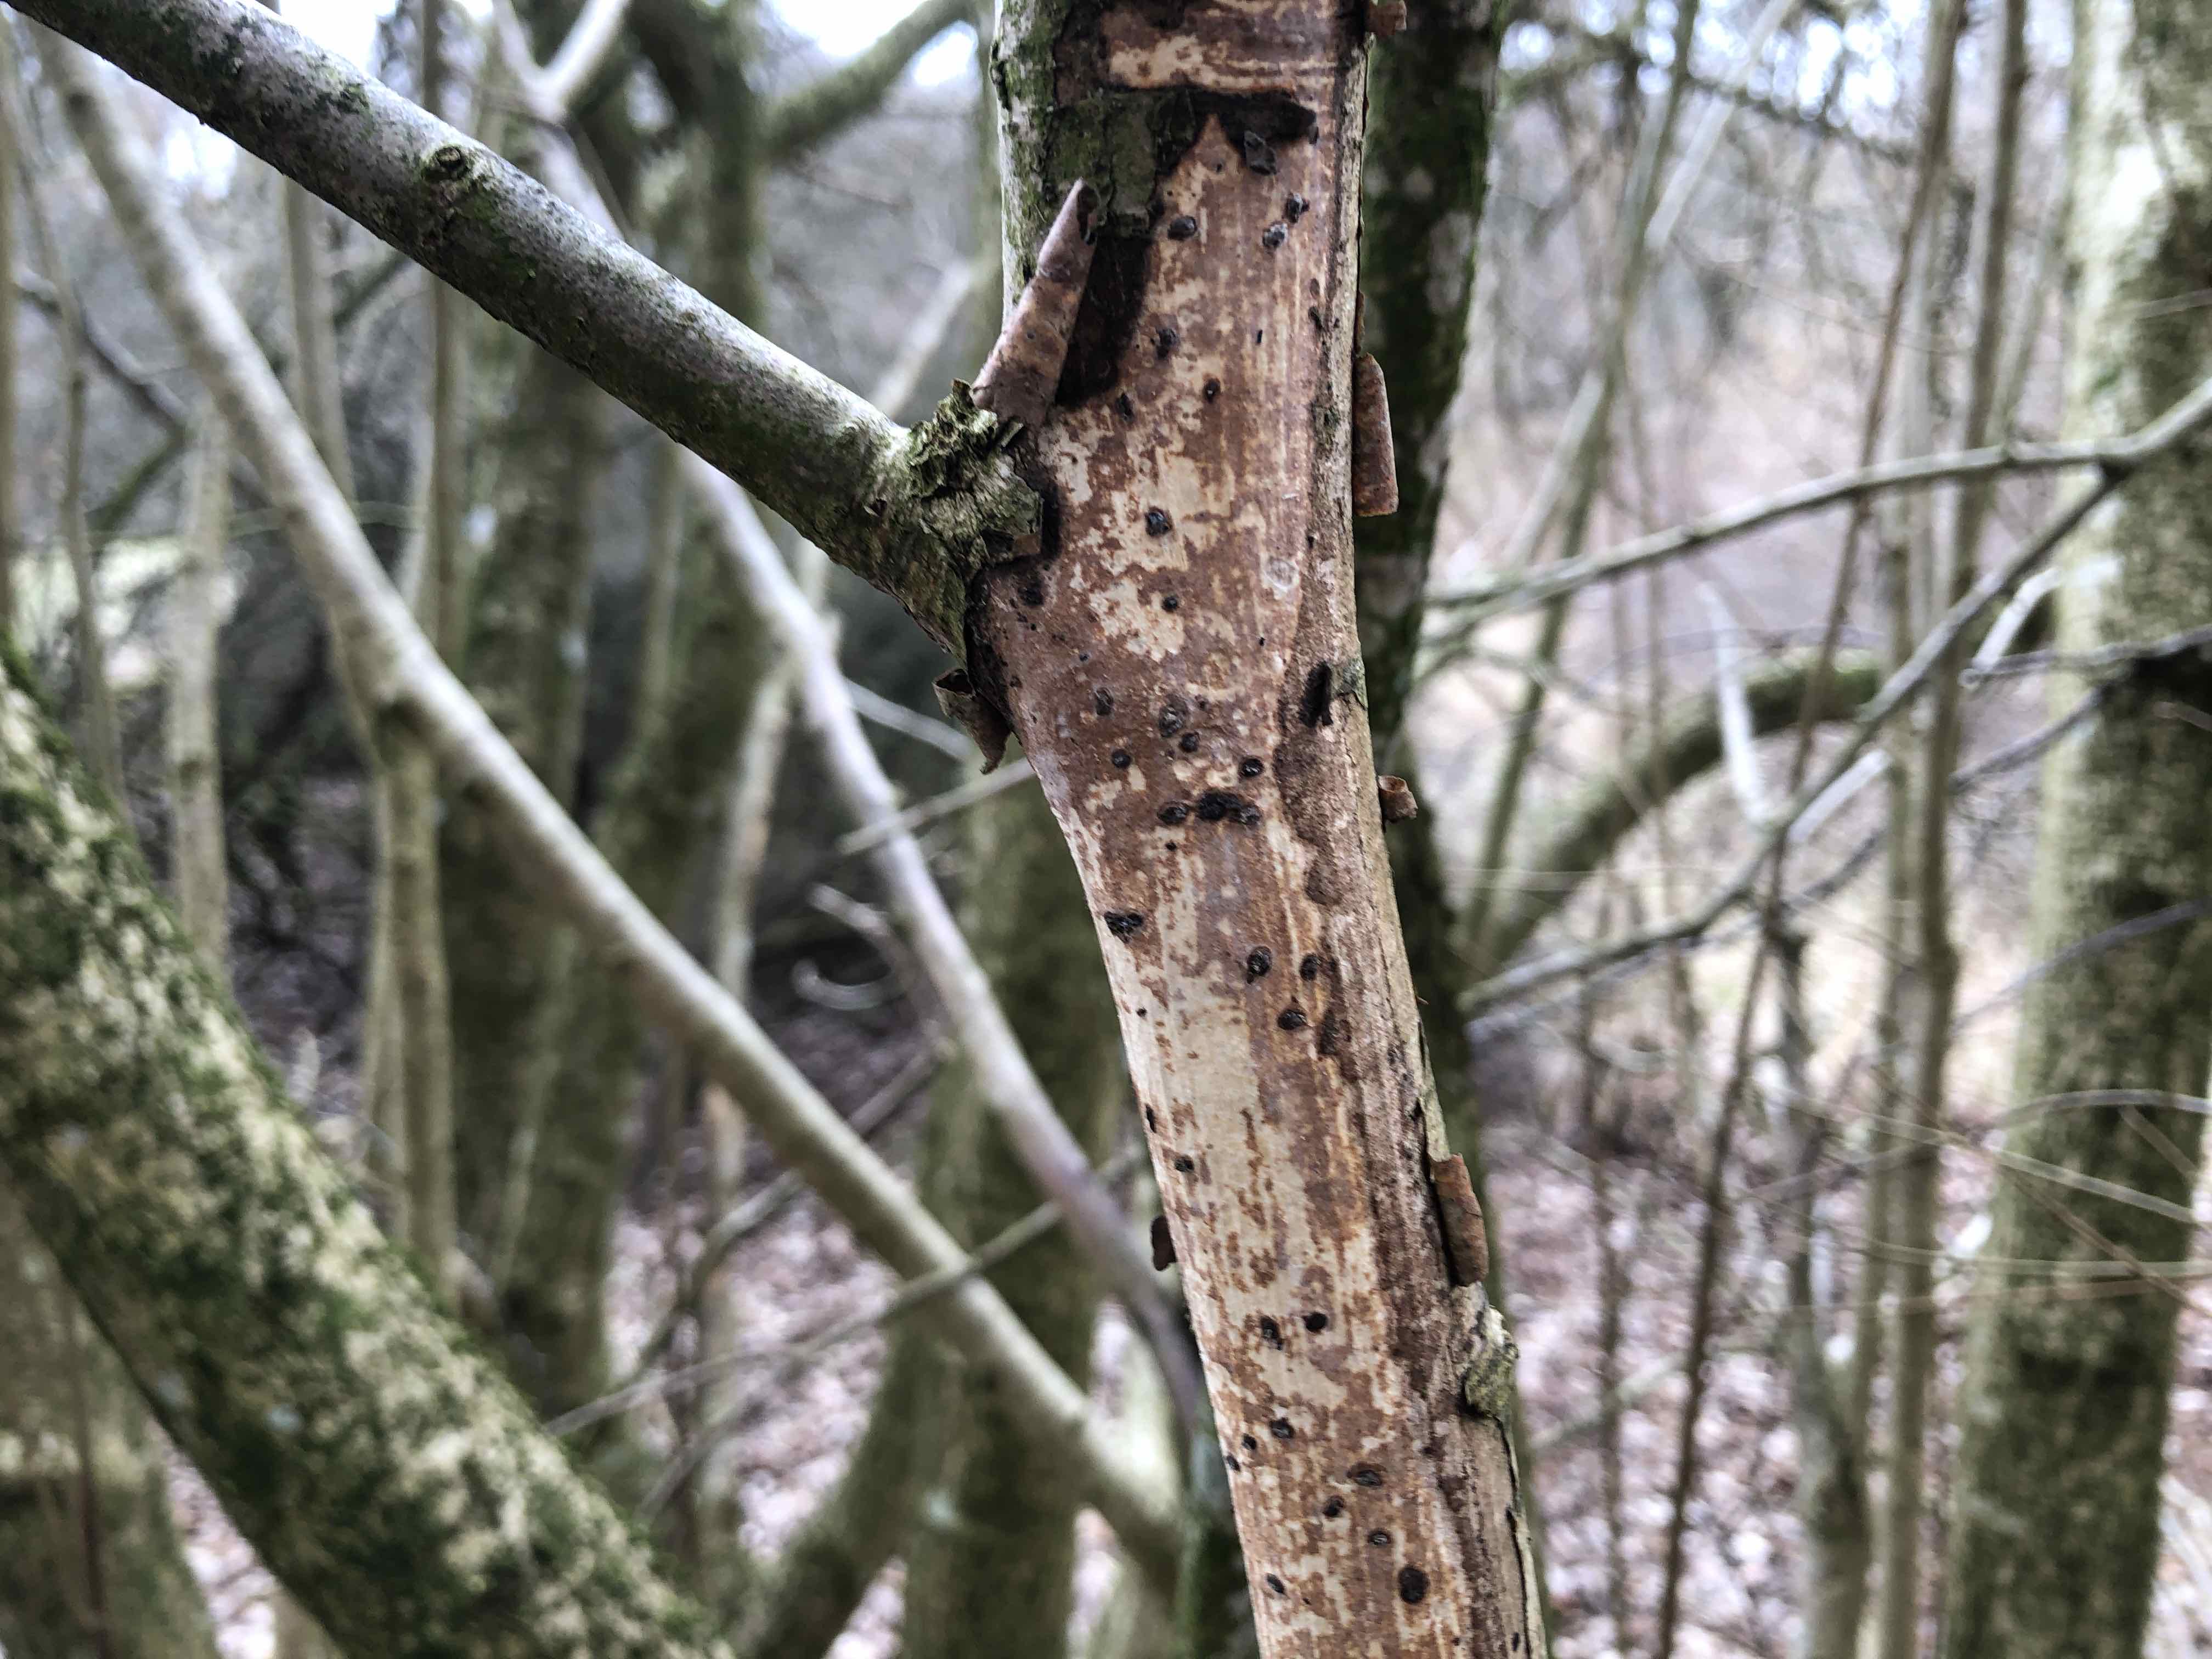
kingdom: Fungi
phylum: Basidiomycota
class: Agaricomycetes
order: Corticiales
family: Vuilleminiaceae
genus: Vuilleminia
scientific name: Vuilleminia coryli
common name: hassel-barksprænger
